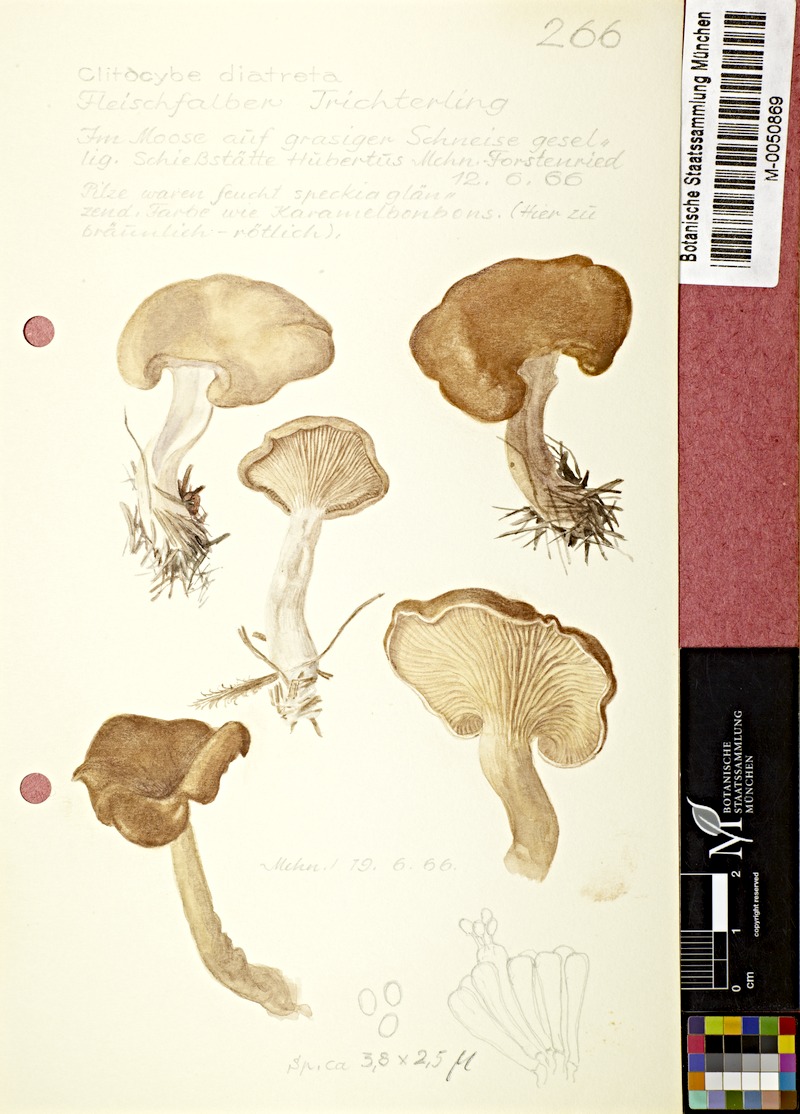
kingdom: Fungi
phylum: Basidiomycota
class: Agaricomycetes
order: Agaricales
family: Tricholomataceae
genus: Clitocybe
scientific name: Clitocybe diatreta
